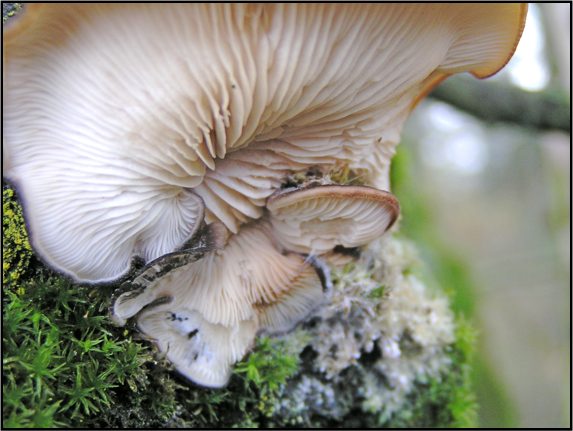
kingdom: Fungi
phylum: Basidiomycota
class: Agaricomycetes
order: Agaricales
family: Pleurotaceae
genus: Hohenbuehelia
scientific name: Hohenbuehelia horakii
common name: grå filthat
